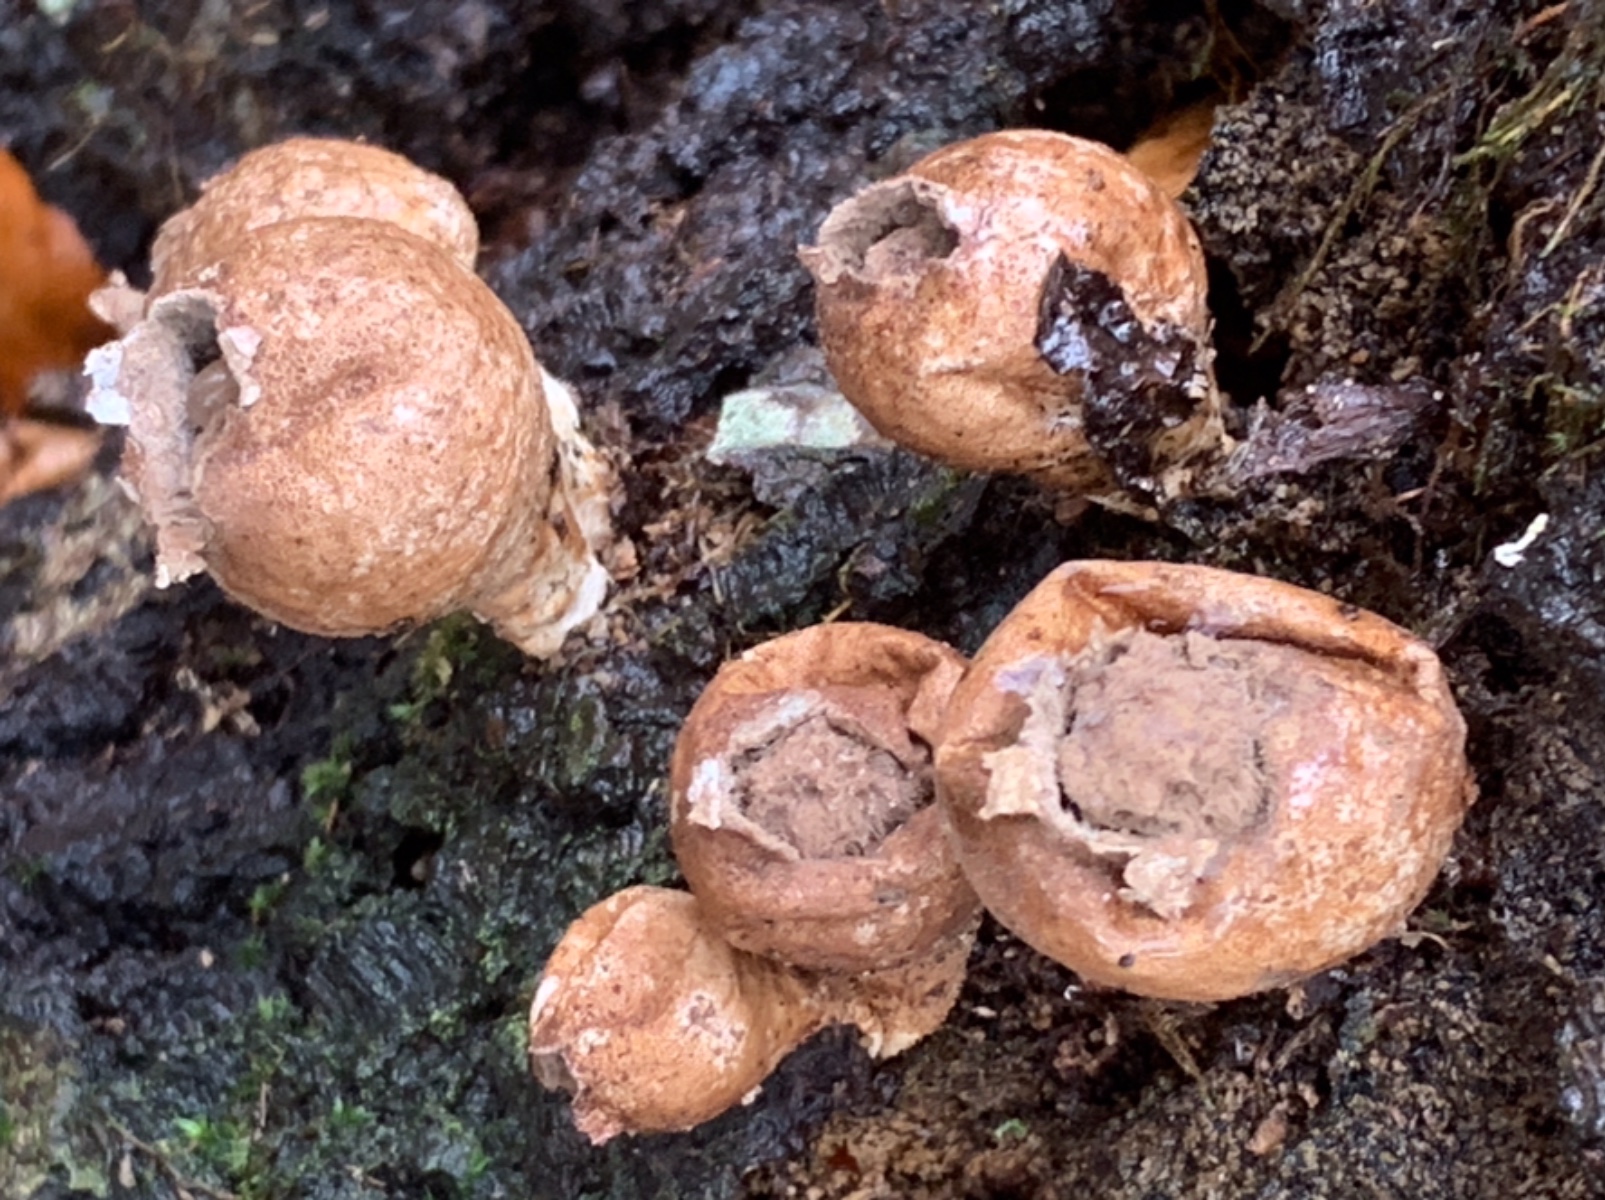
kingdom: Fungi
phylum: Basidiomycota
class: Agaricomycetes
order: Agaricales
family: Lycoperdaceae
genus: Apioperdon
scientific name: Apioperdon pyriforme
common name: pære-støvbold
